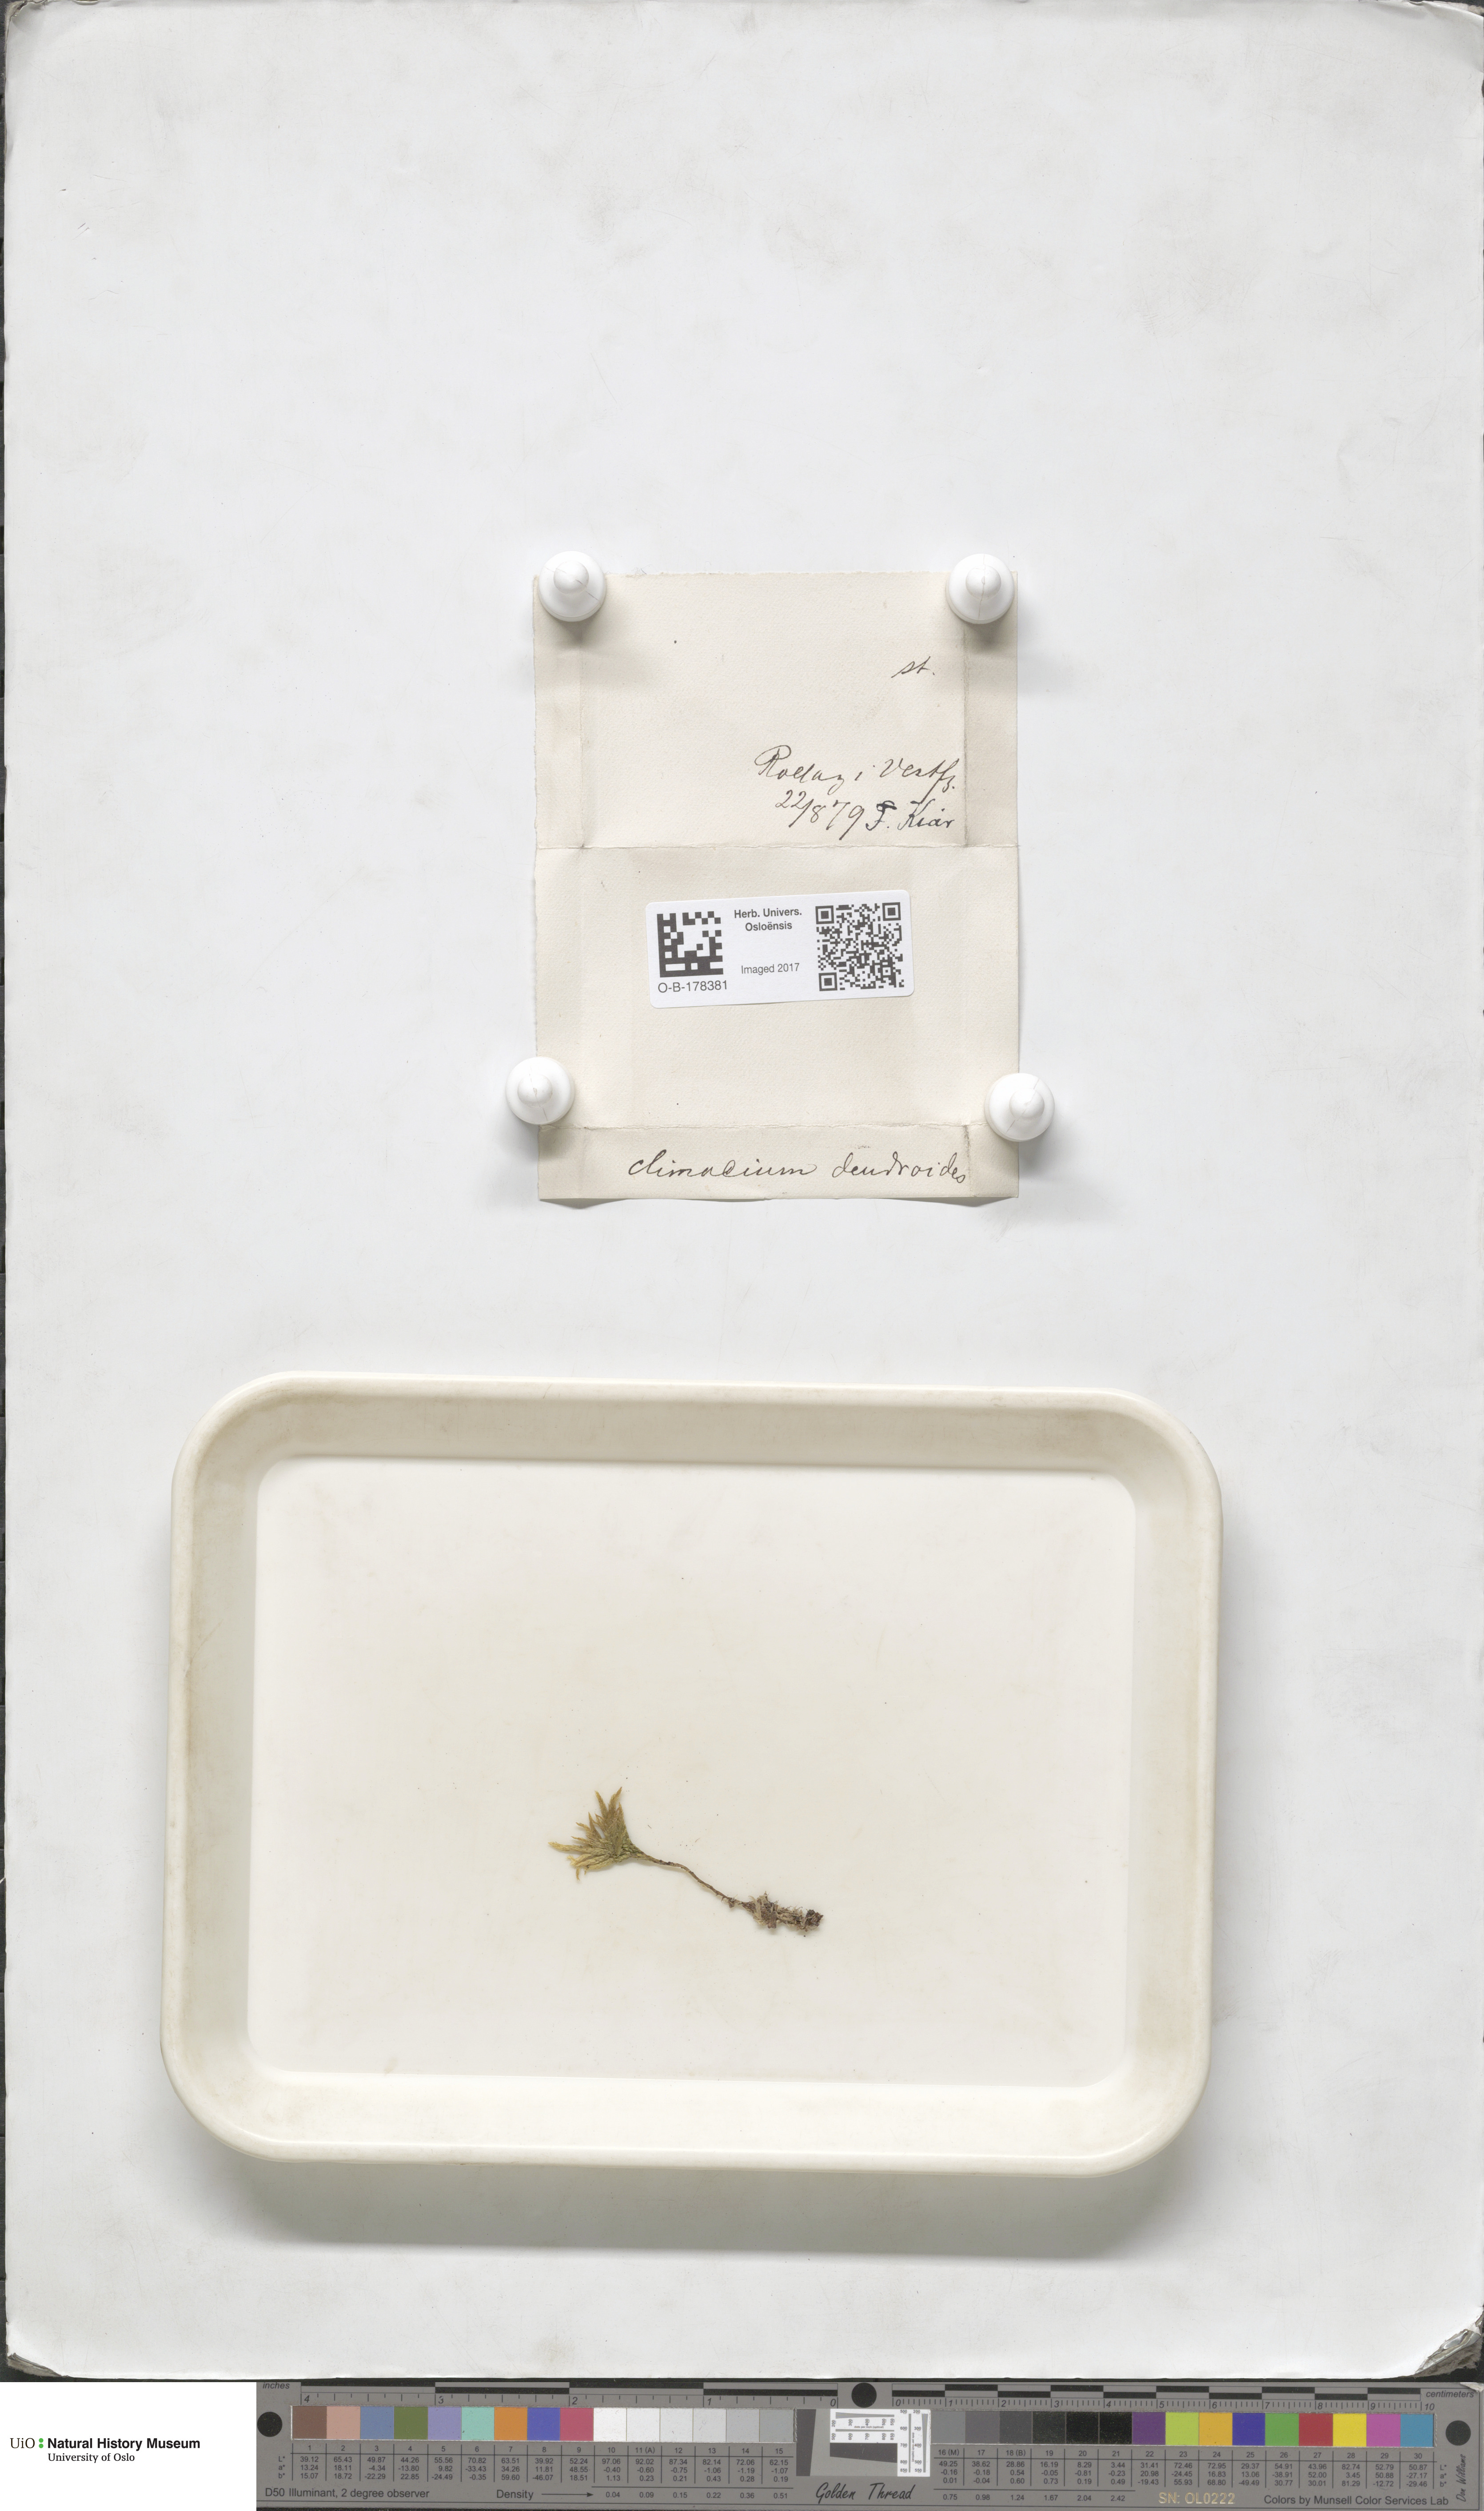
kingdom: Plantae
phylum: Bryophyta
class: Bryopsida
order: Hypnales
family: Climaciaceae
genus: Climacium
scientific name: Climacium dendroides
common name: Northern tree moss
